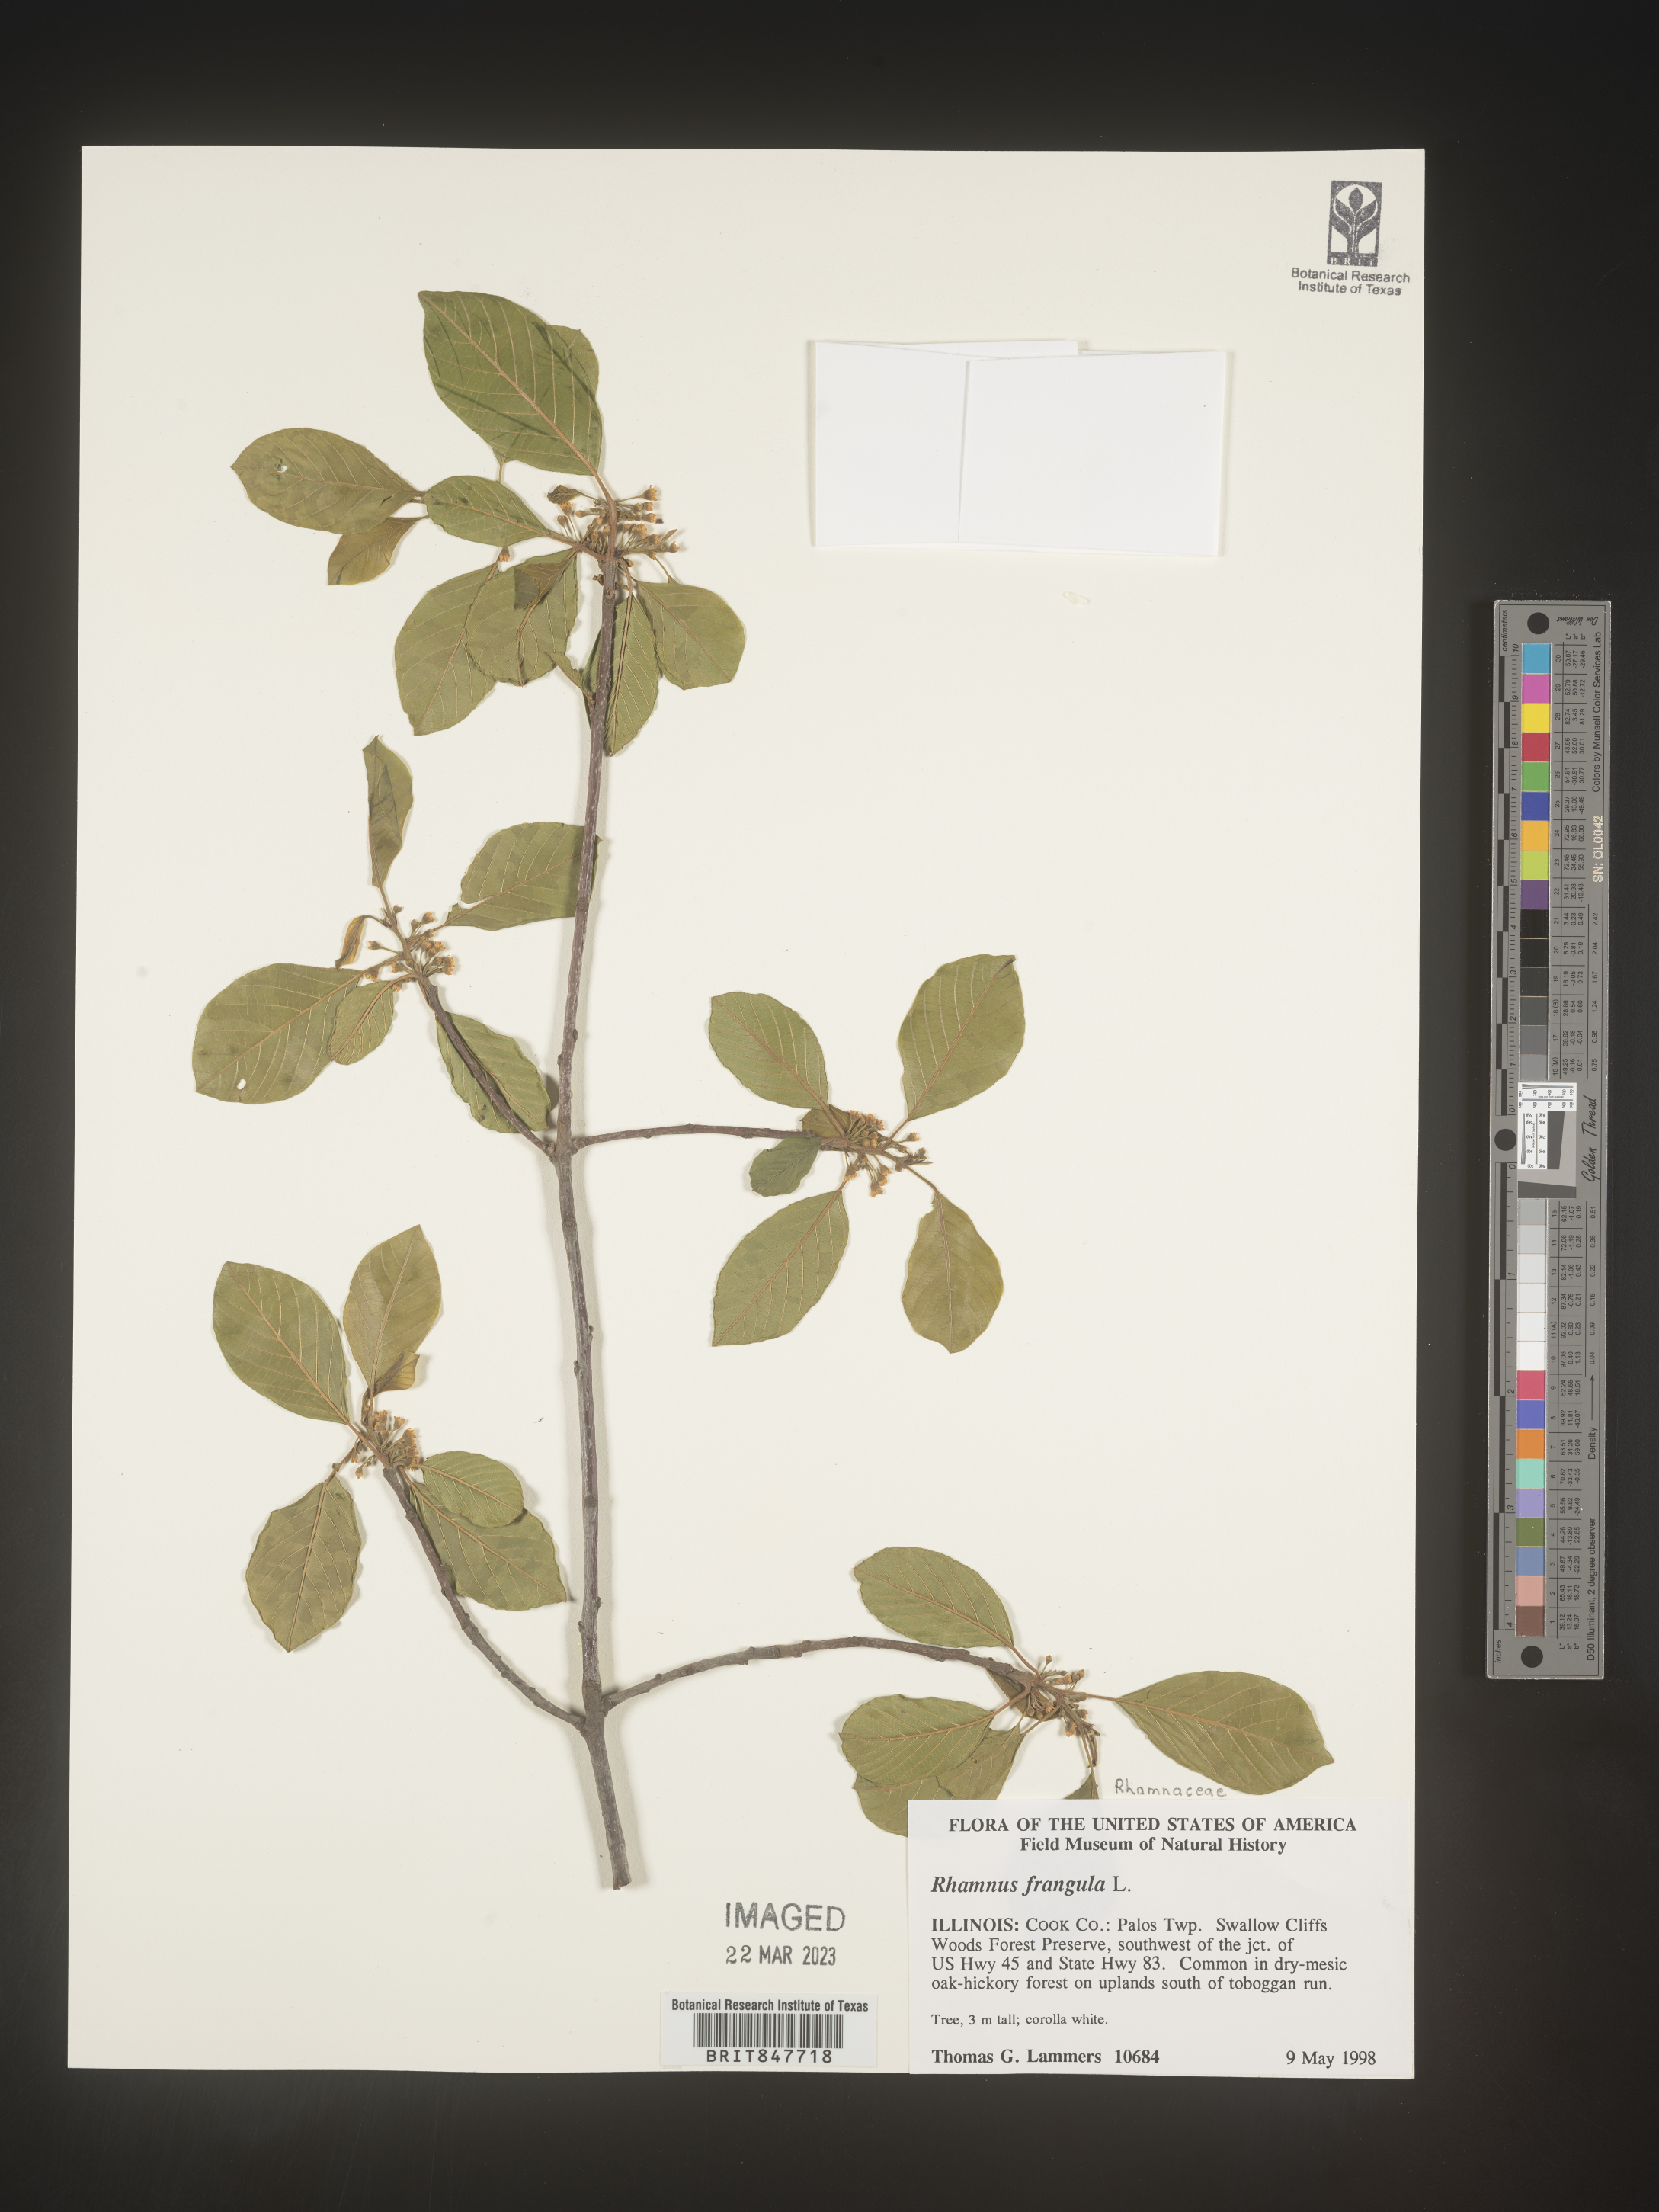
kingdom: Plantae
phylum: Tracheophyta
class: Magnoliopsida
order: Rosales
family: Rhamnaceae
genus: Frangula
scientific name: Frangula alnus
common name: Alder buckthorn
